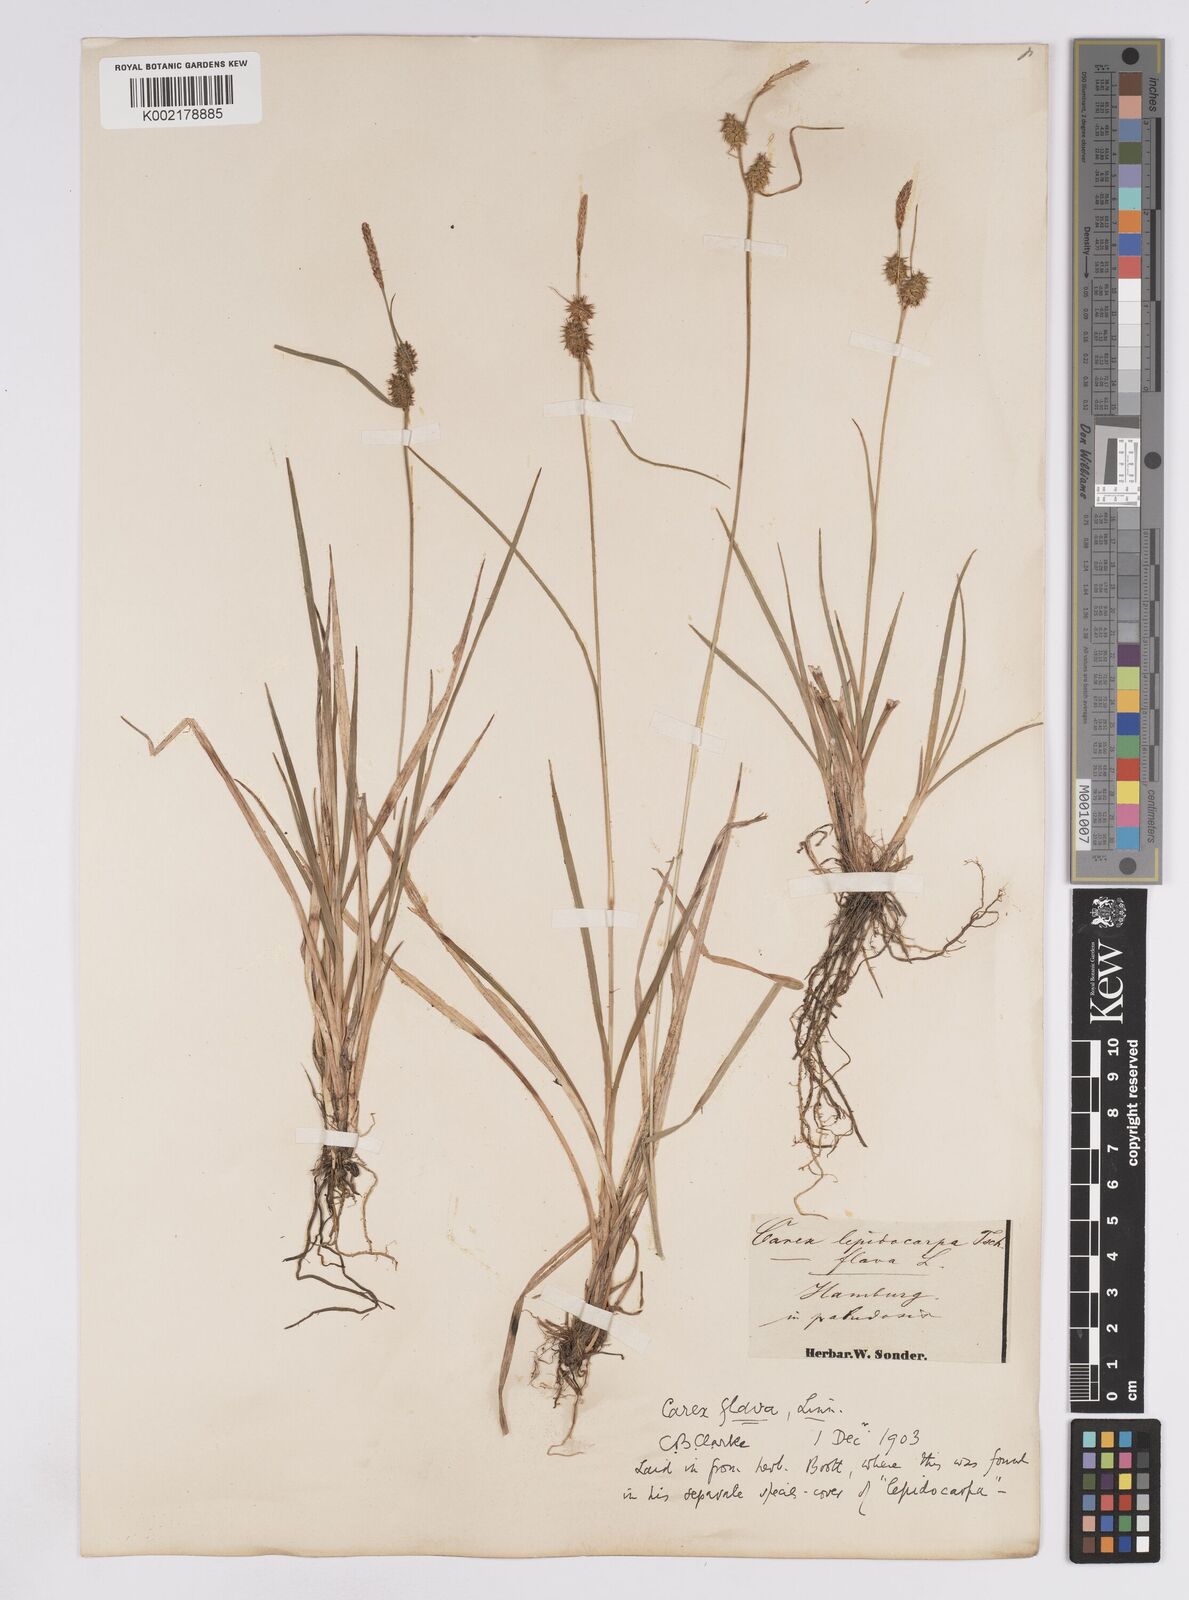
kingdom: Plantae
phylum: Tracheophyta
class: Liliopsida
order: Poales
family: Cyperaceae
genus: Carex
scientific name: Carex lepidocarpa
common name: Long-stalked yellow-sedge
